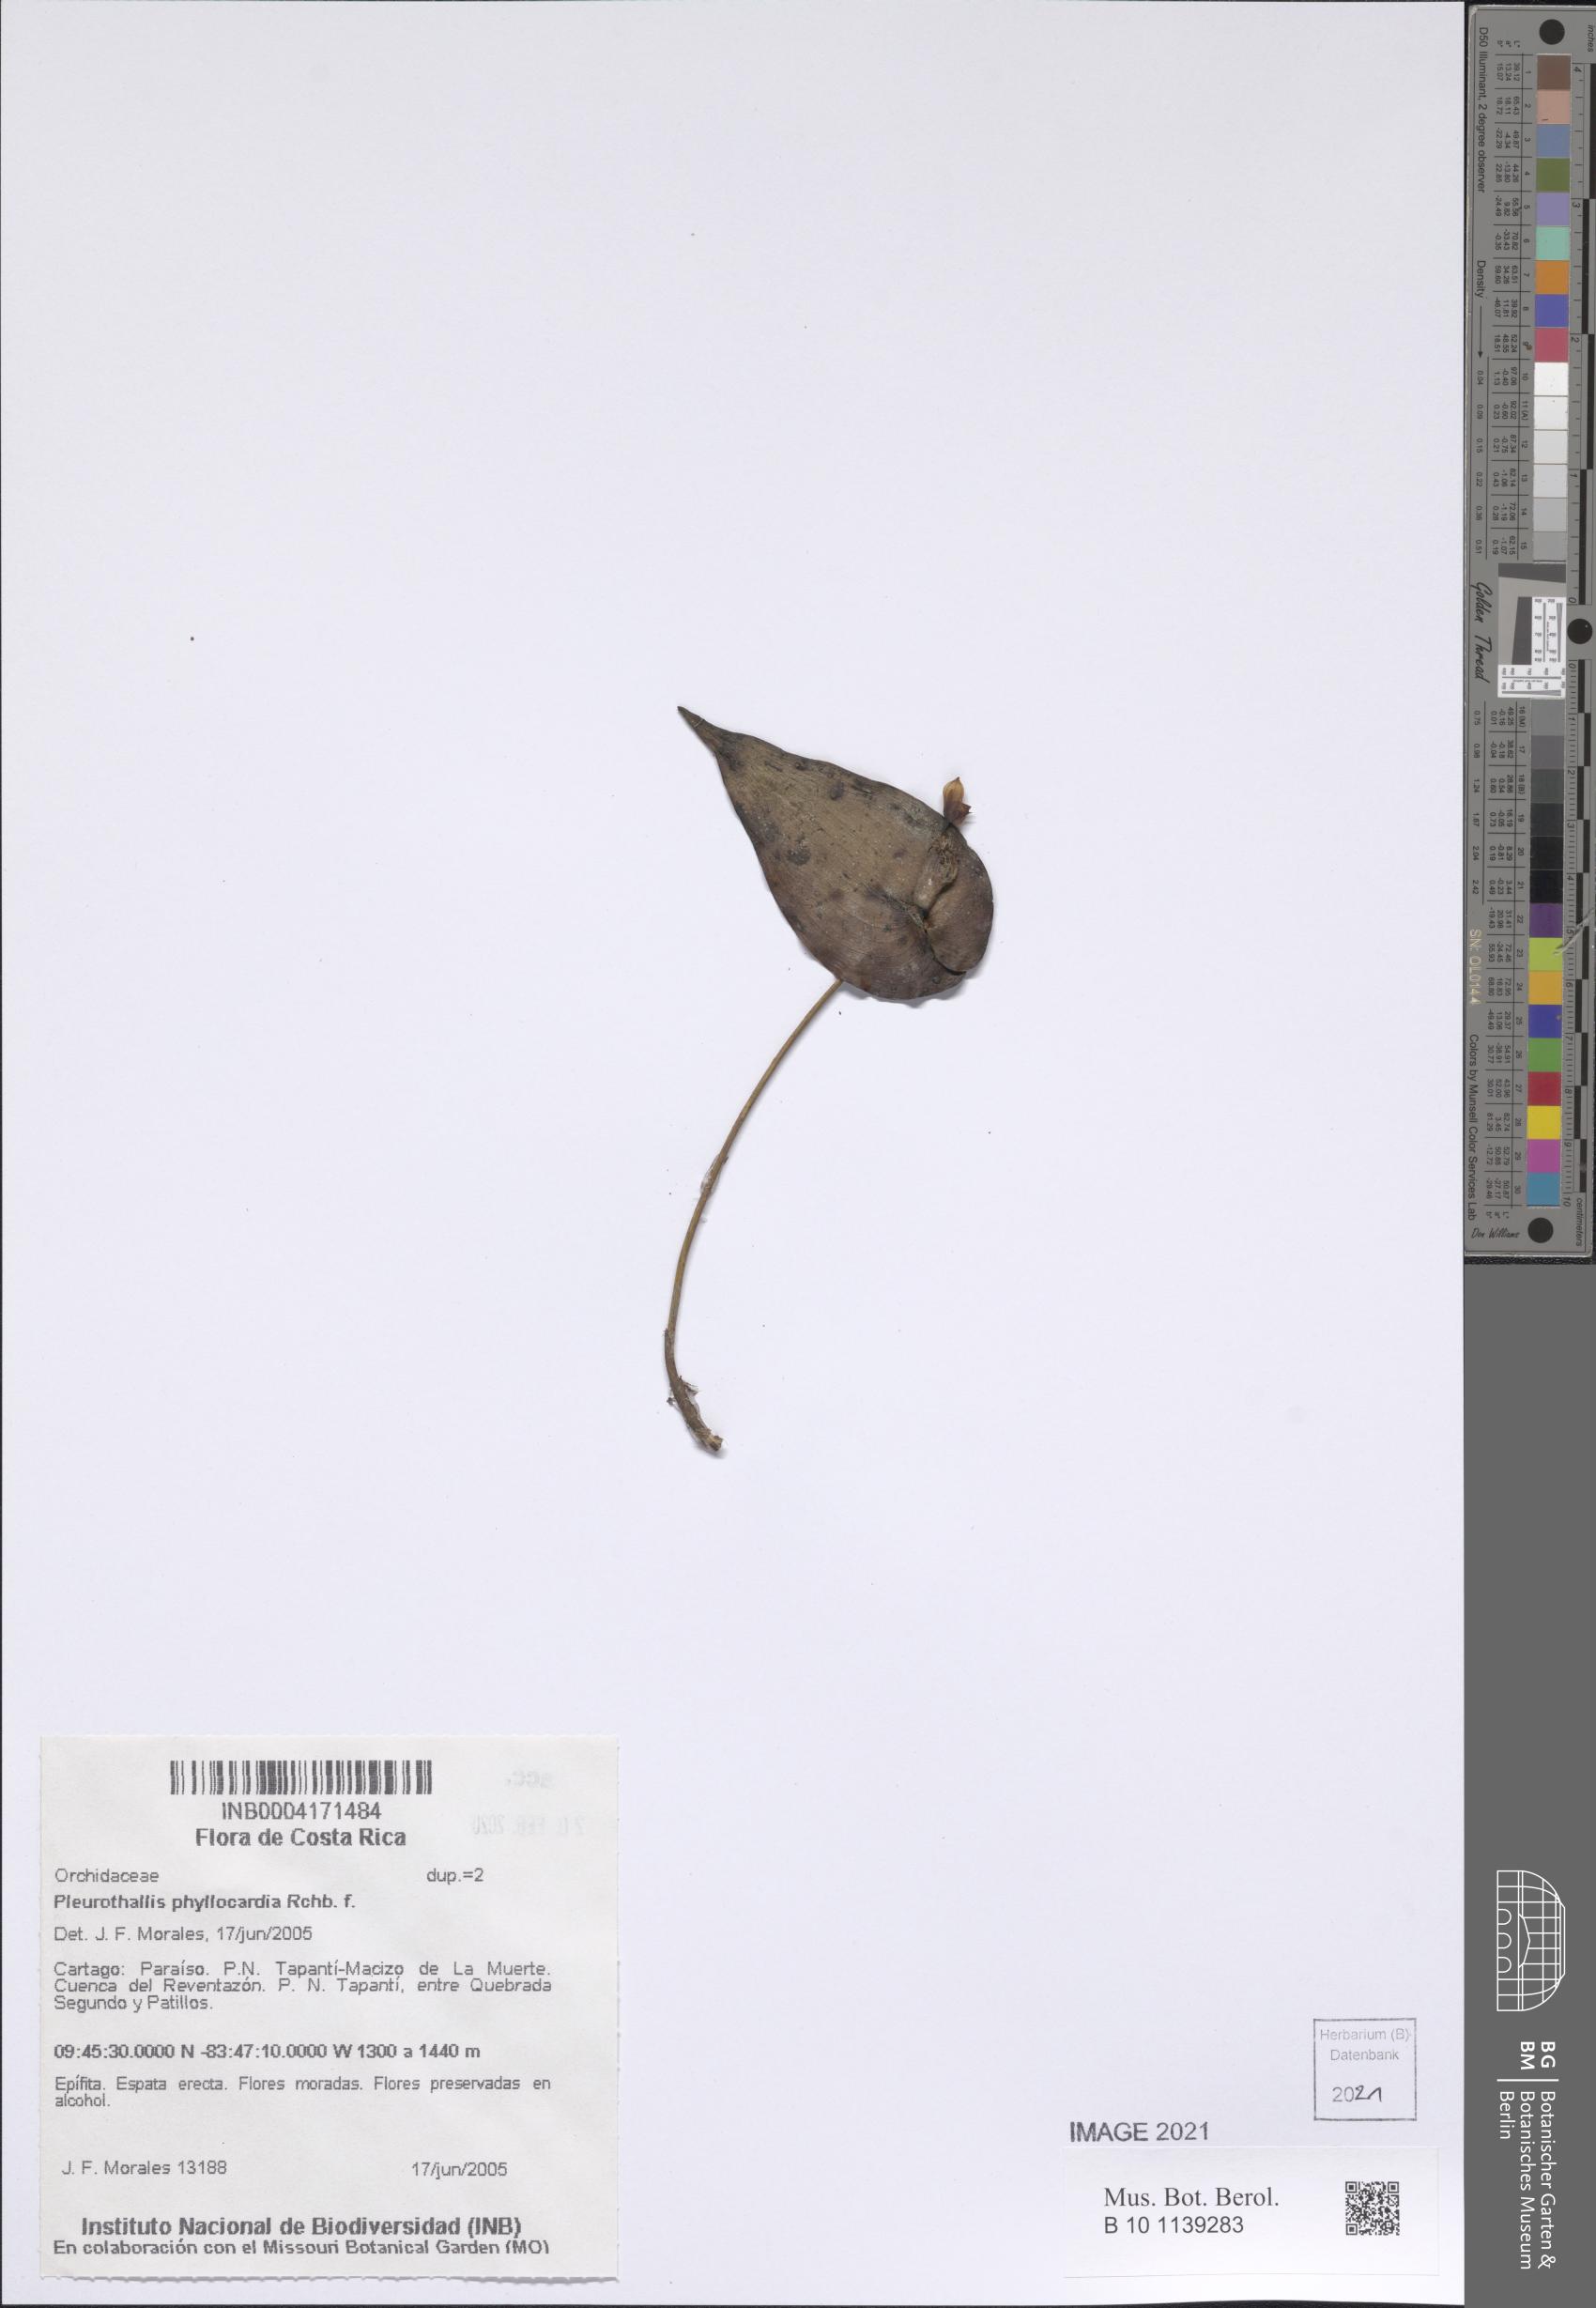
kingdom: Plantae
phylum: Tracheophyta
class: Liliopsida
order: Asparagales
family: Orchidaceae
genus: Pleurothallis
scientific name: Pleurothallis phyllocardia
